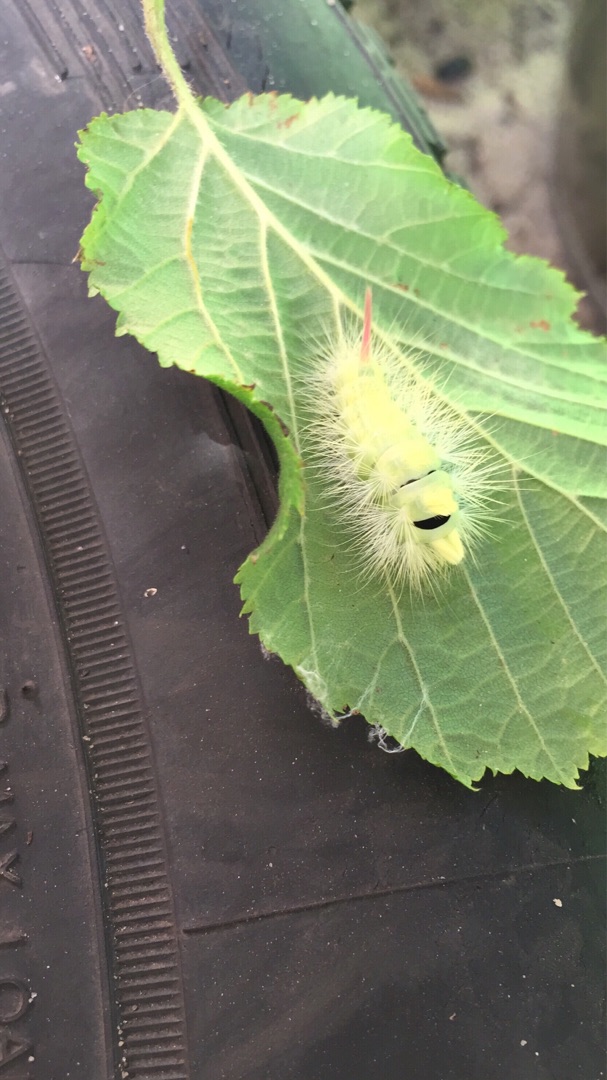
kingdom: Animalia
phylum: Arthropoda
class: Insecta
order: Lepidoptera
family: Erebidae
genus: Calliteara
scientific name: Calliteara pudibunda
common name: Bøgenonne
